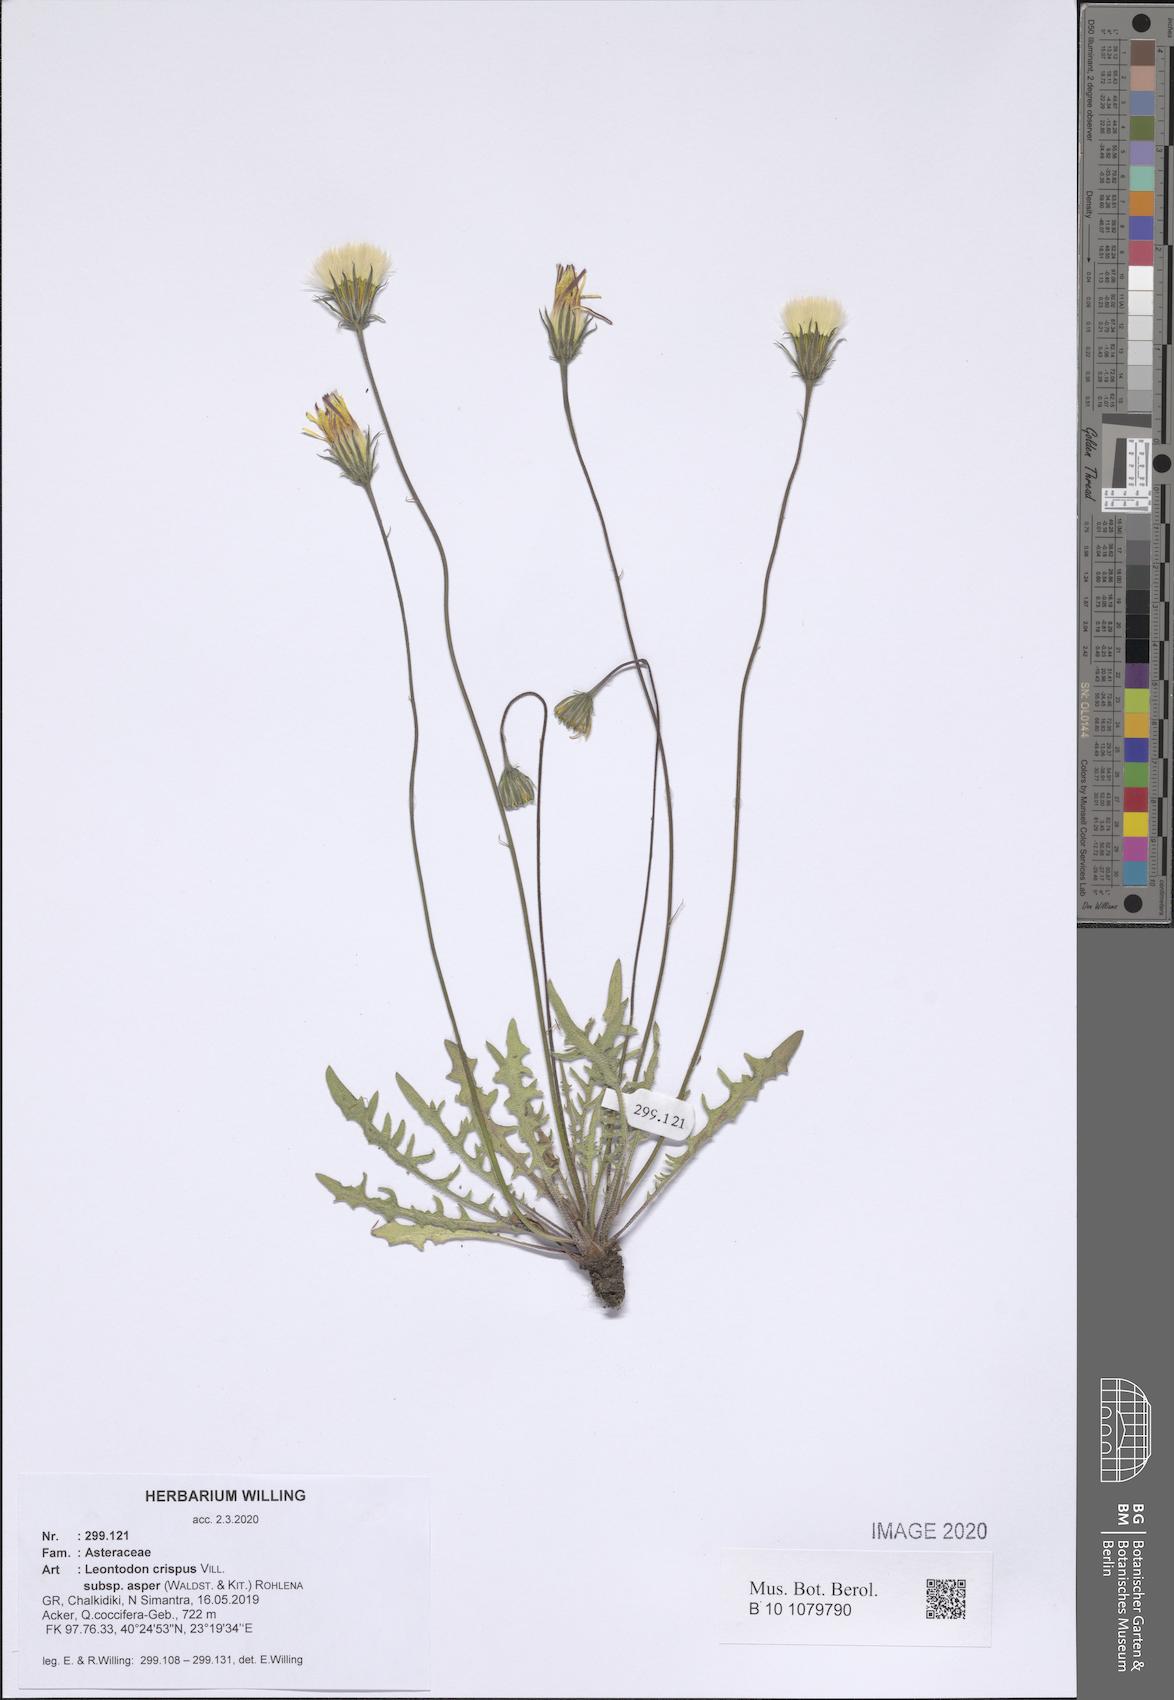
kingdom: Plantae
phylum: Tracheophyta
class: Magnoliopsida
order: Asterales
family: Asteraceae
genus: Leontodon
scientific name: Leontodon biscutellifolius
